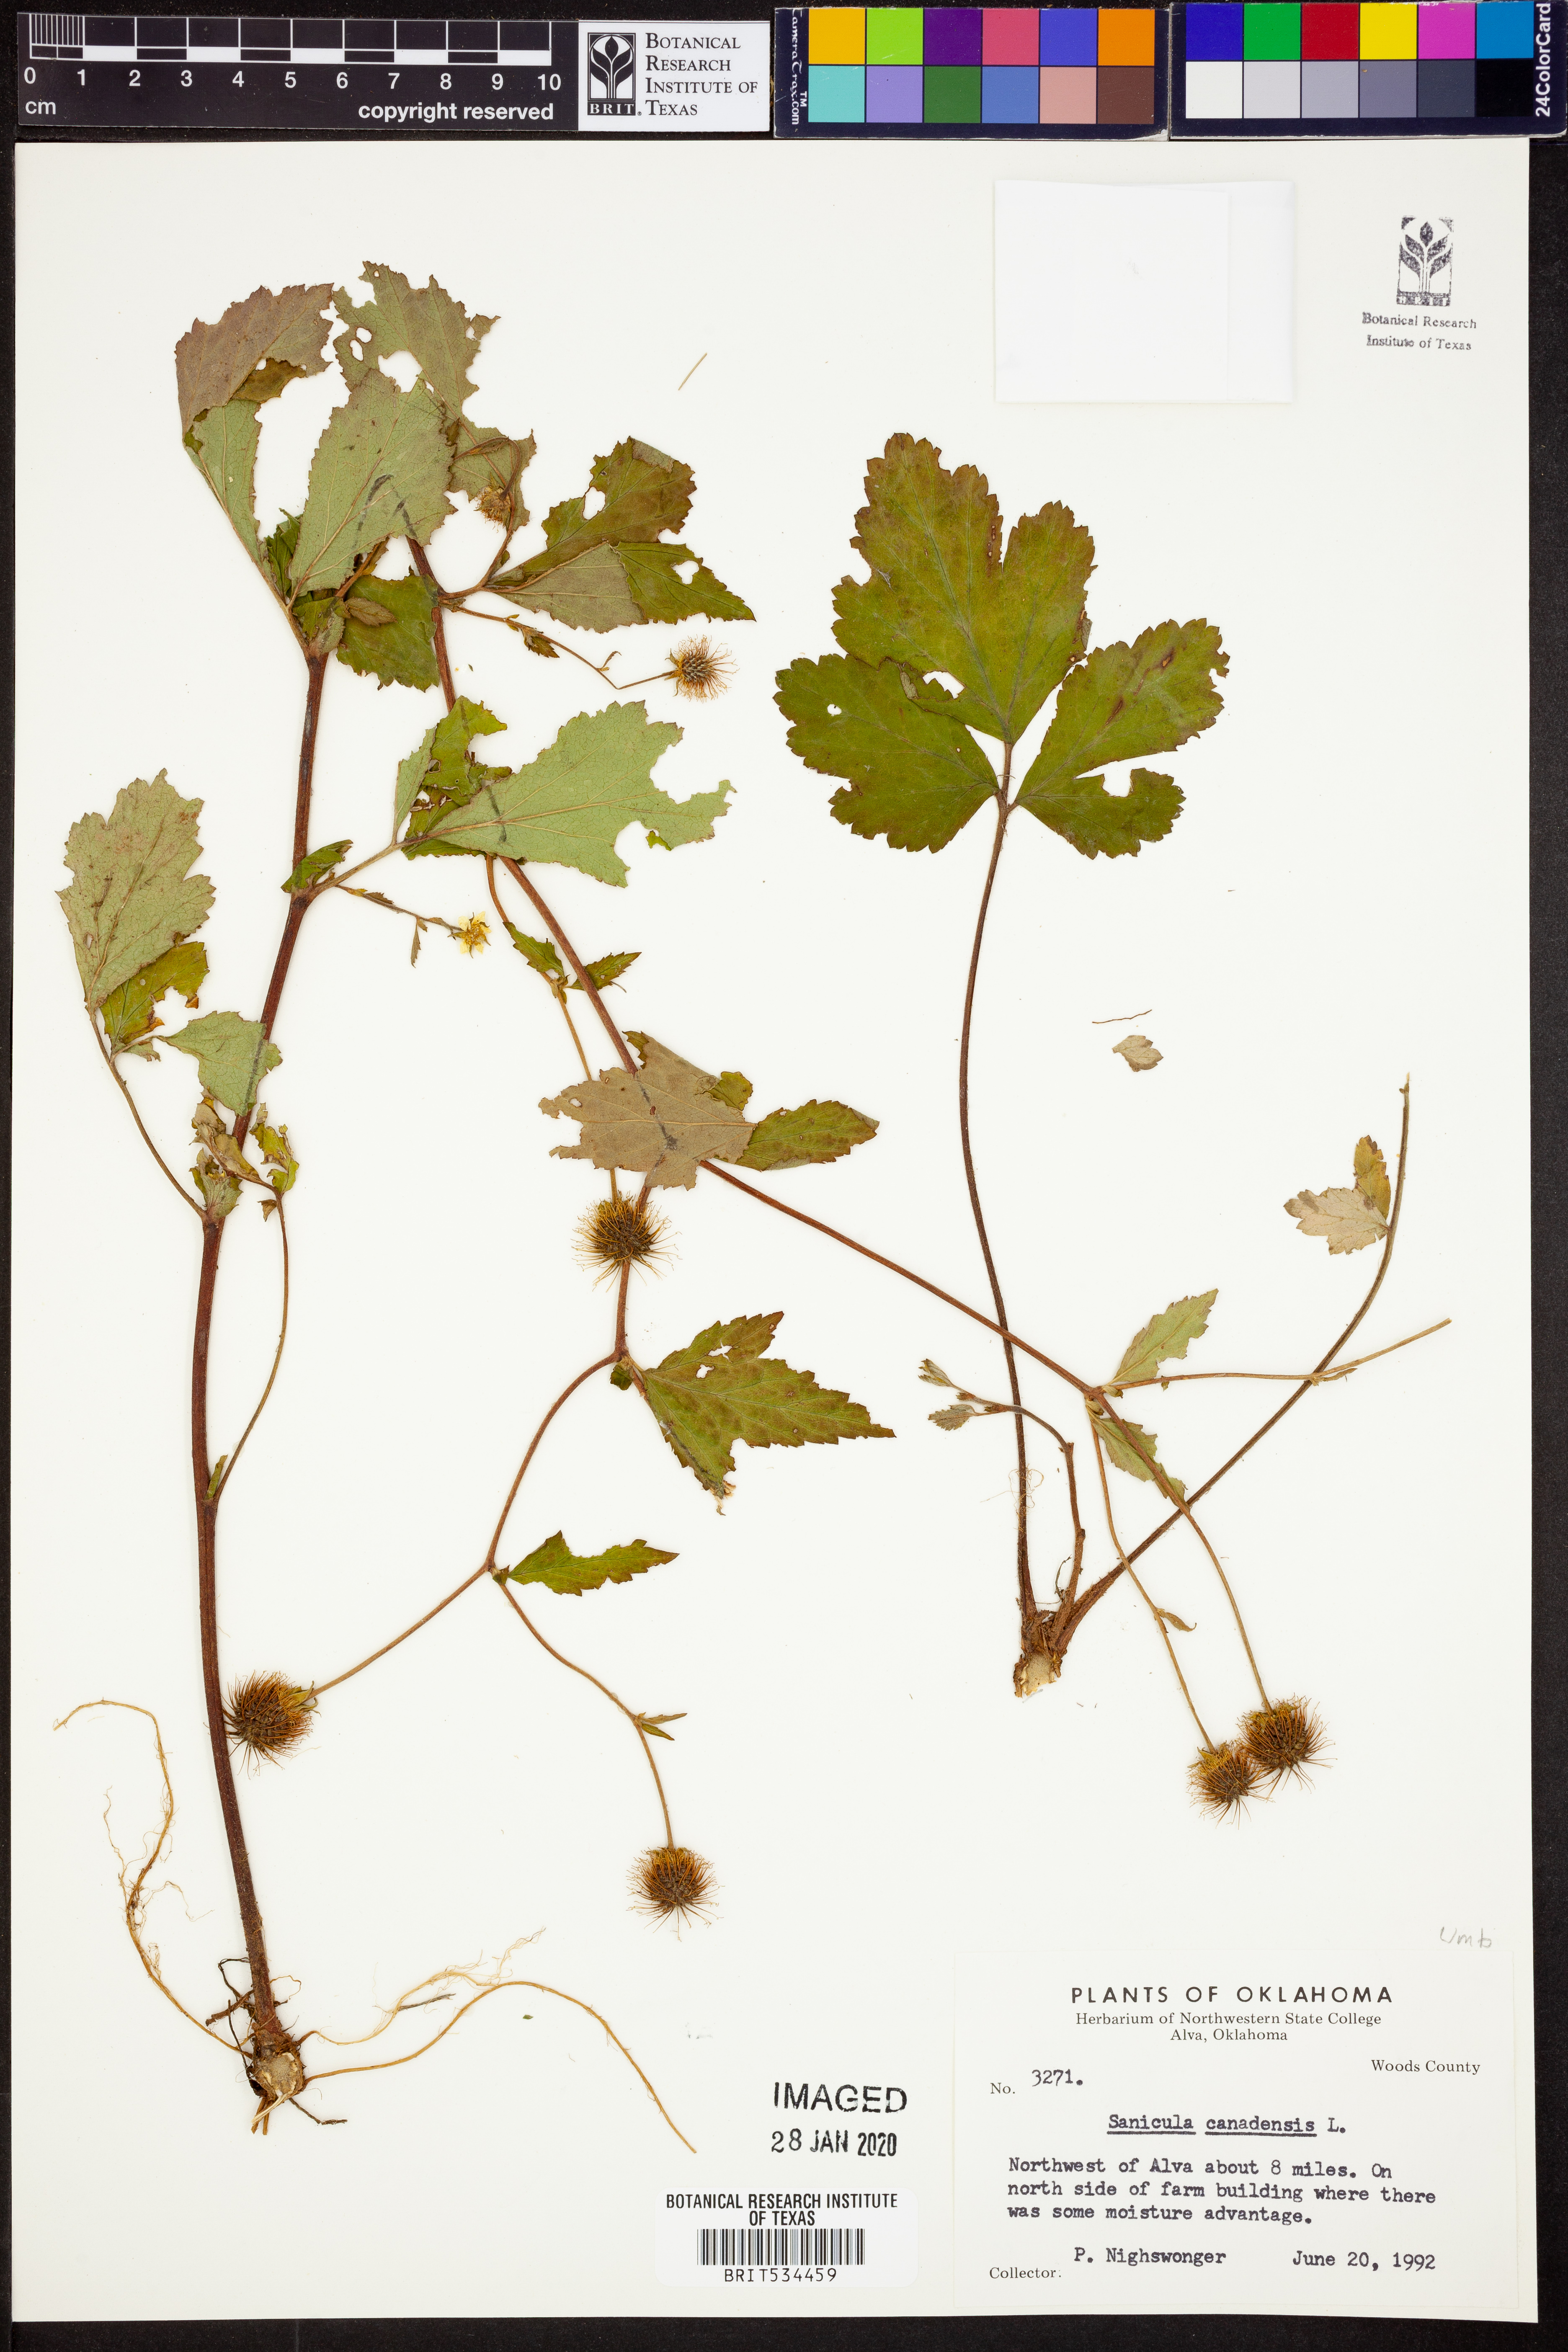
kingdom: Plantae
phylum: Tracheophyta
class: Magnoliopsida
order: Apiales
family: Apiaceae
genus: Sanicula
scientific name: Sanicula canadensis
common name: Canada sanicle
